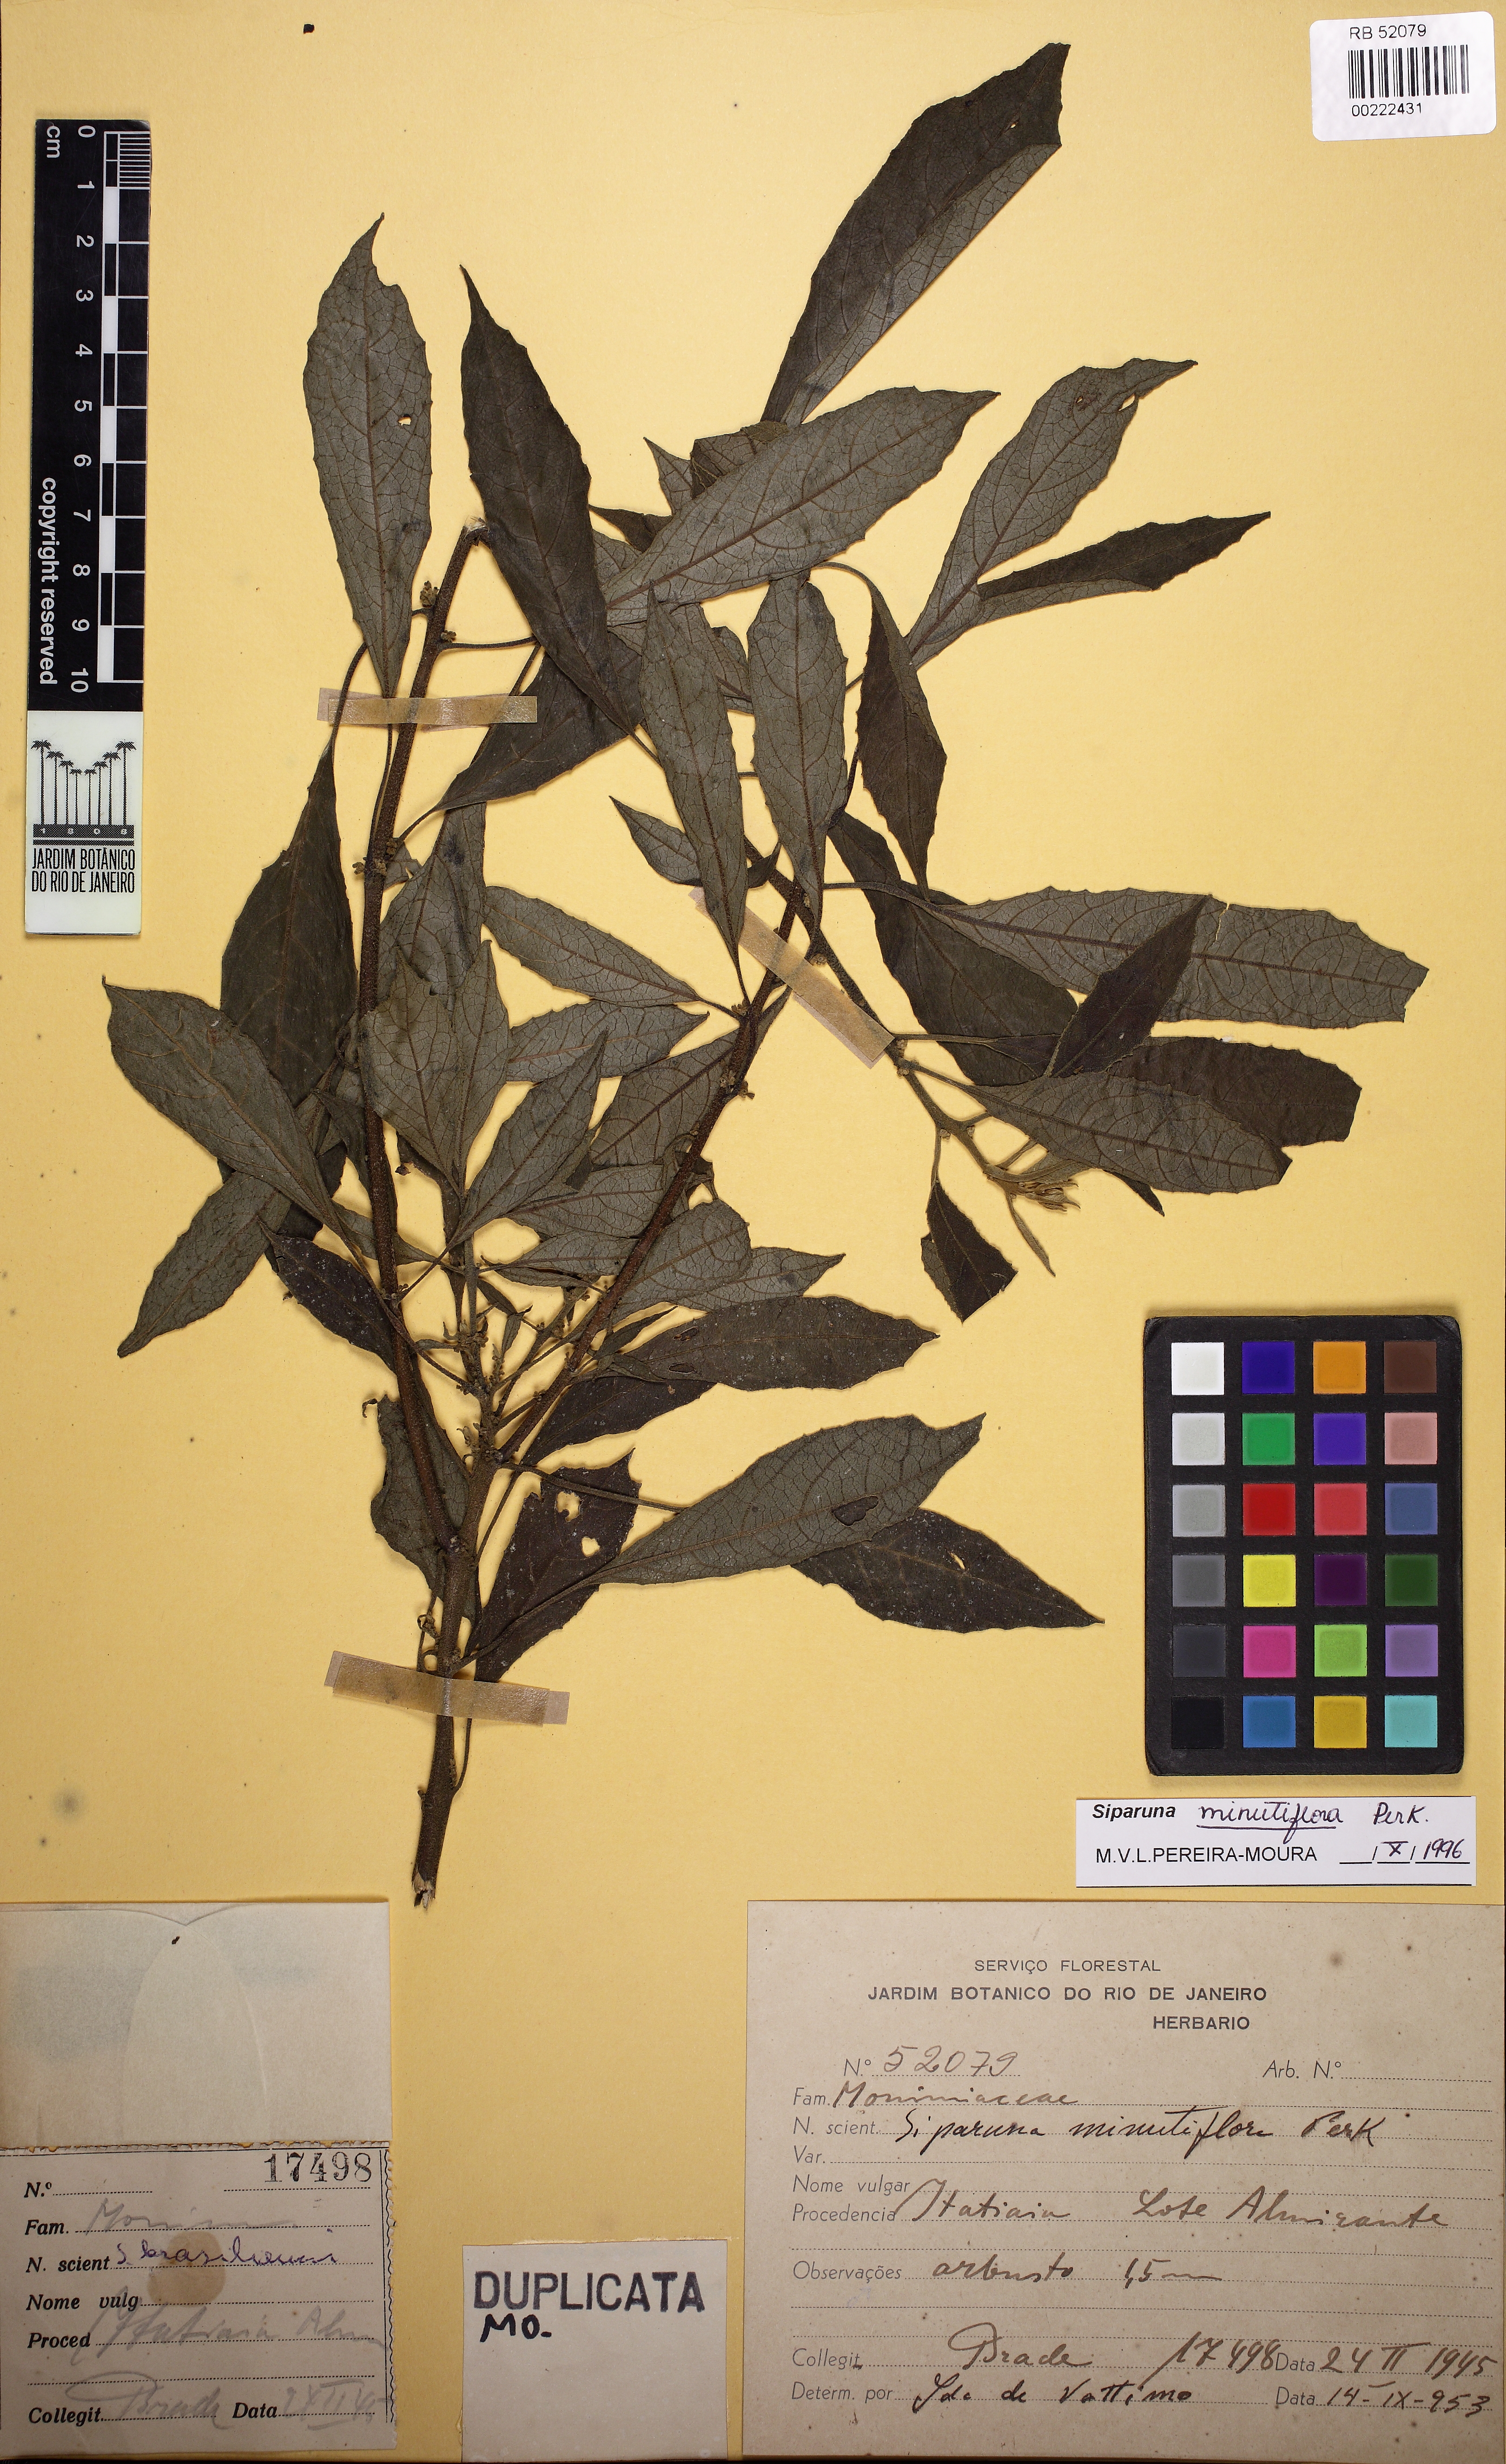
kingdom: Plantae
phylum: Tracheophyta
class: Magnoliopsida
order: Laurales
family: Siparunaceae
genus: Siparuna
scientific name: Siparuna brasiliensis
